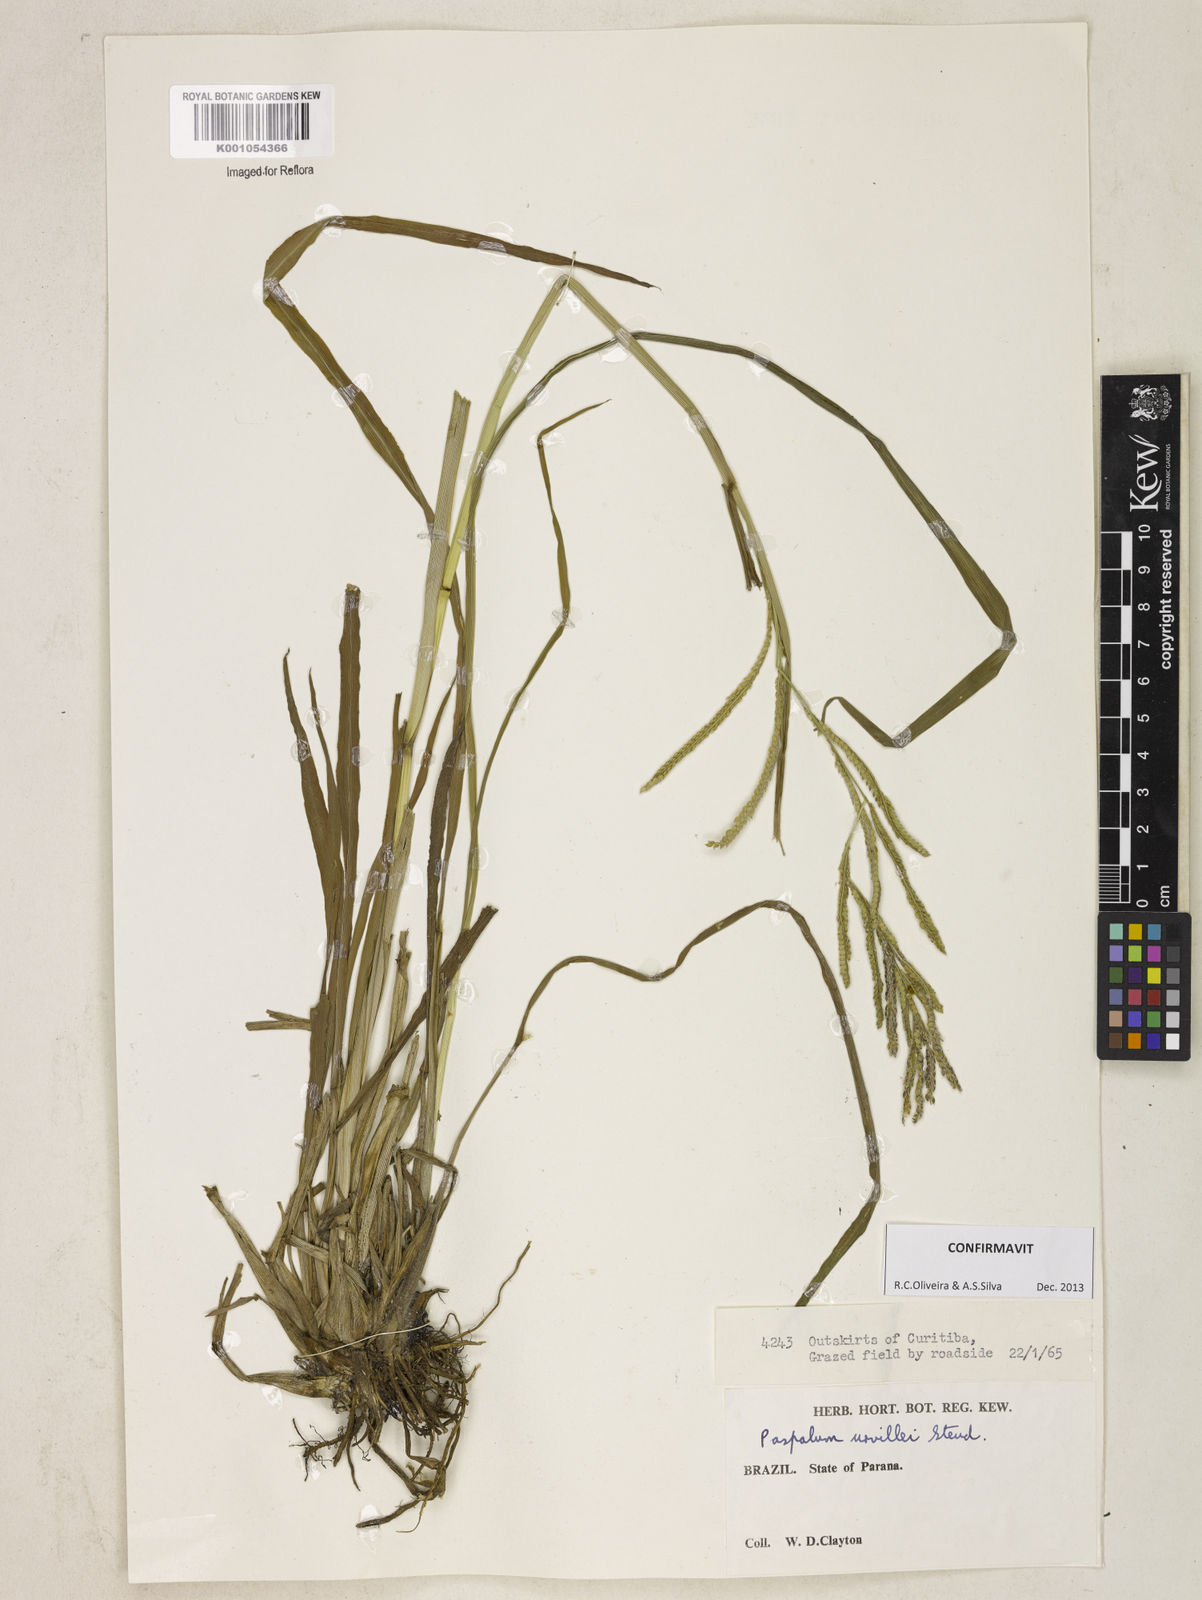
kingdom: Plantae
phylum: Tracheophyta
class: Liliopsida
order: Poales
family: Poaceae
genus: Paspalum
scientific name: Paspalum urvillei
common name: Vasey's grass
